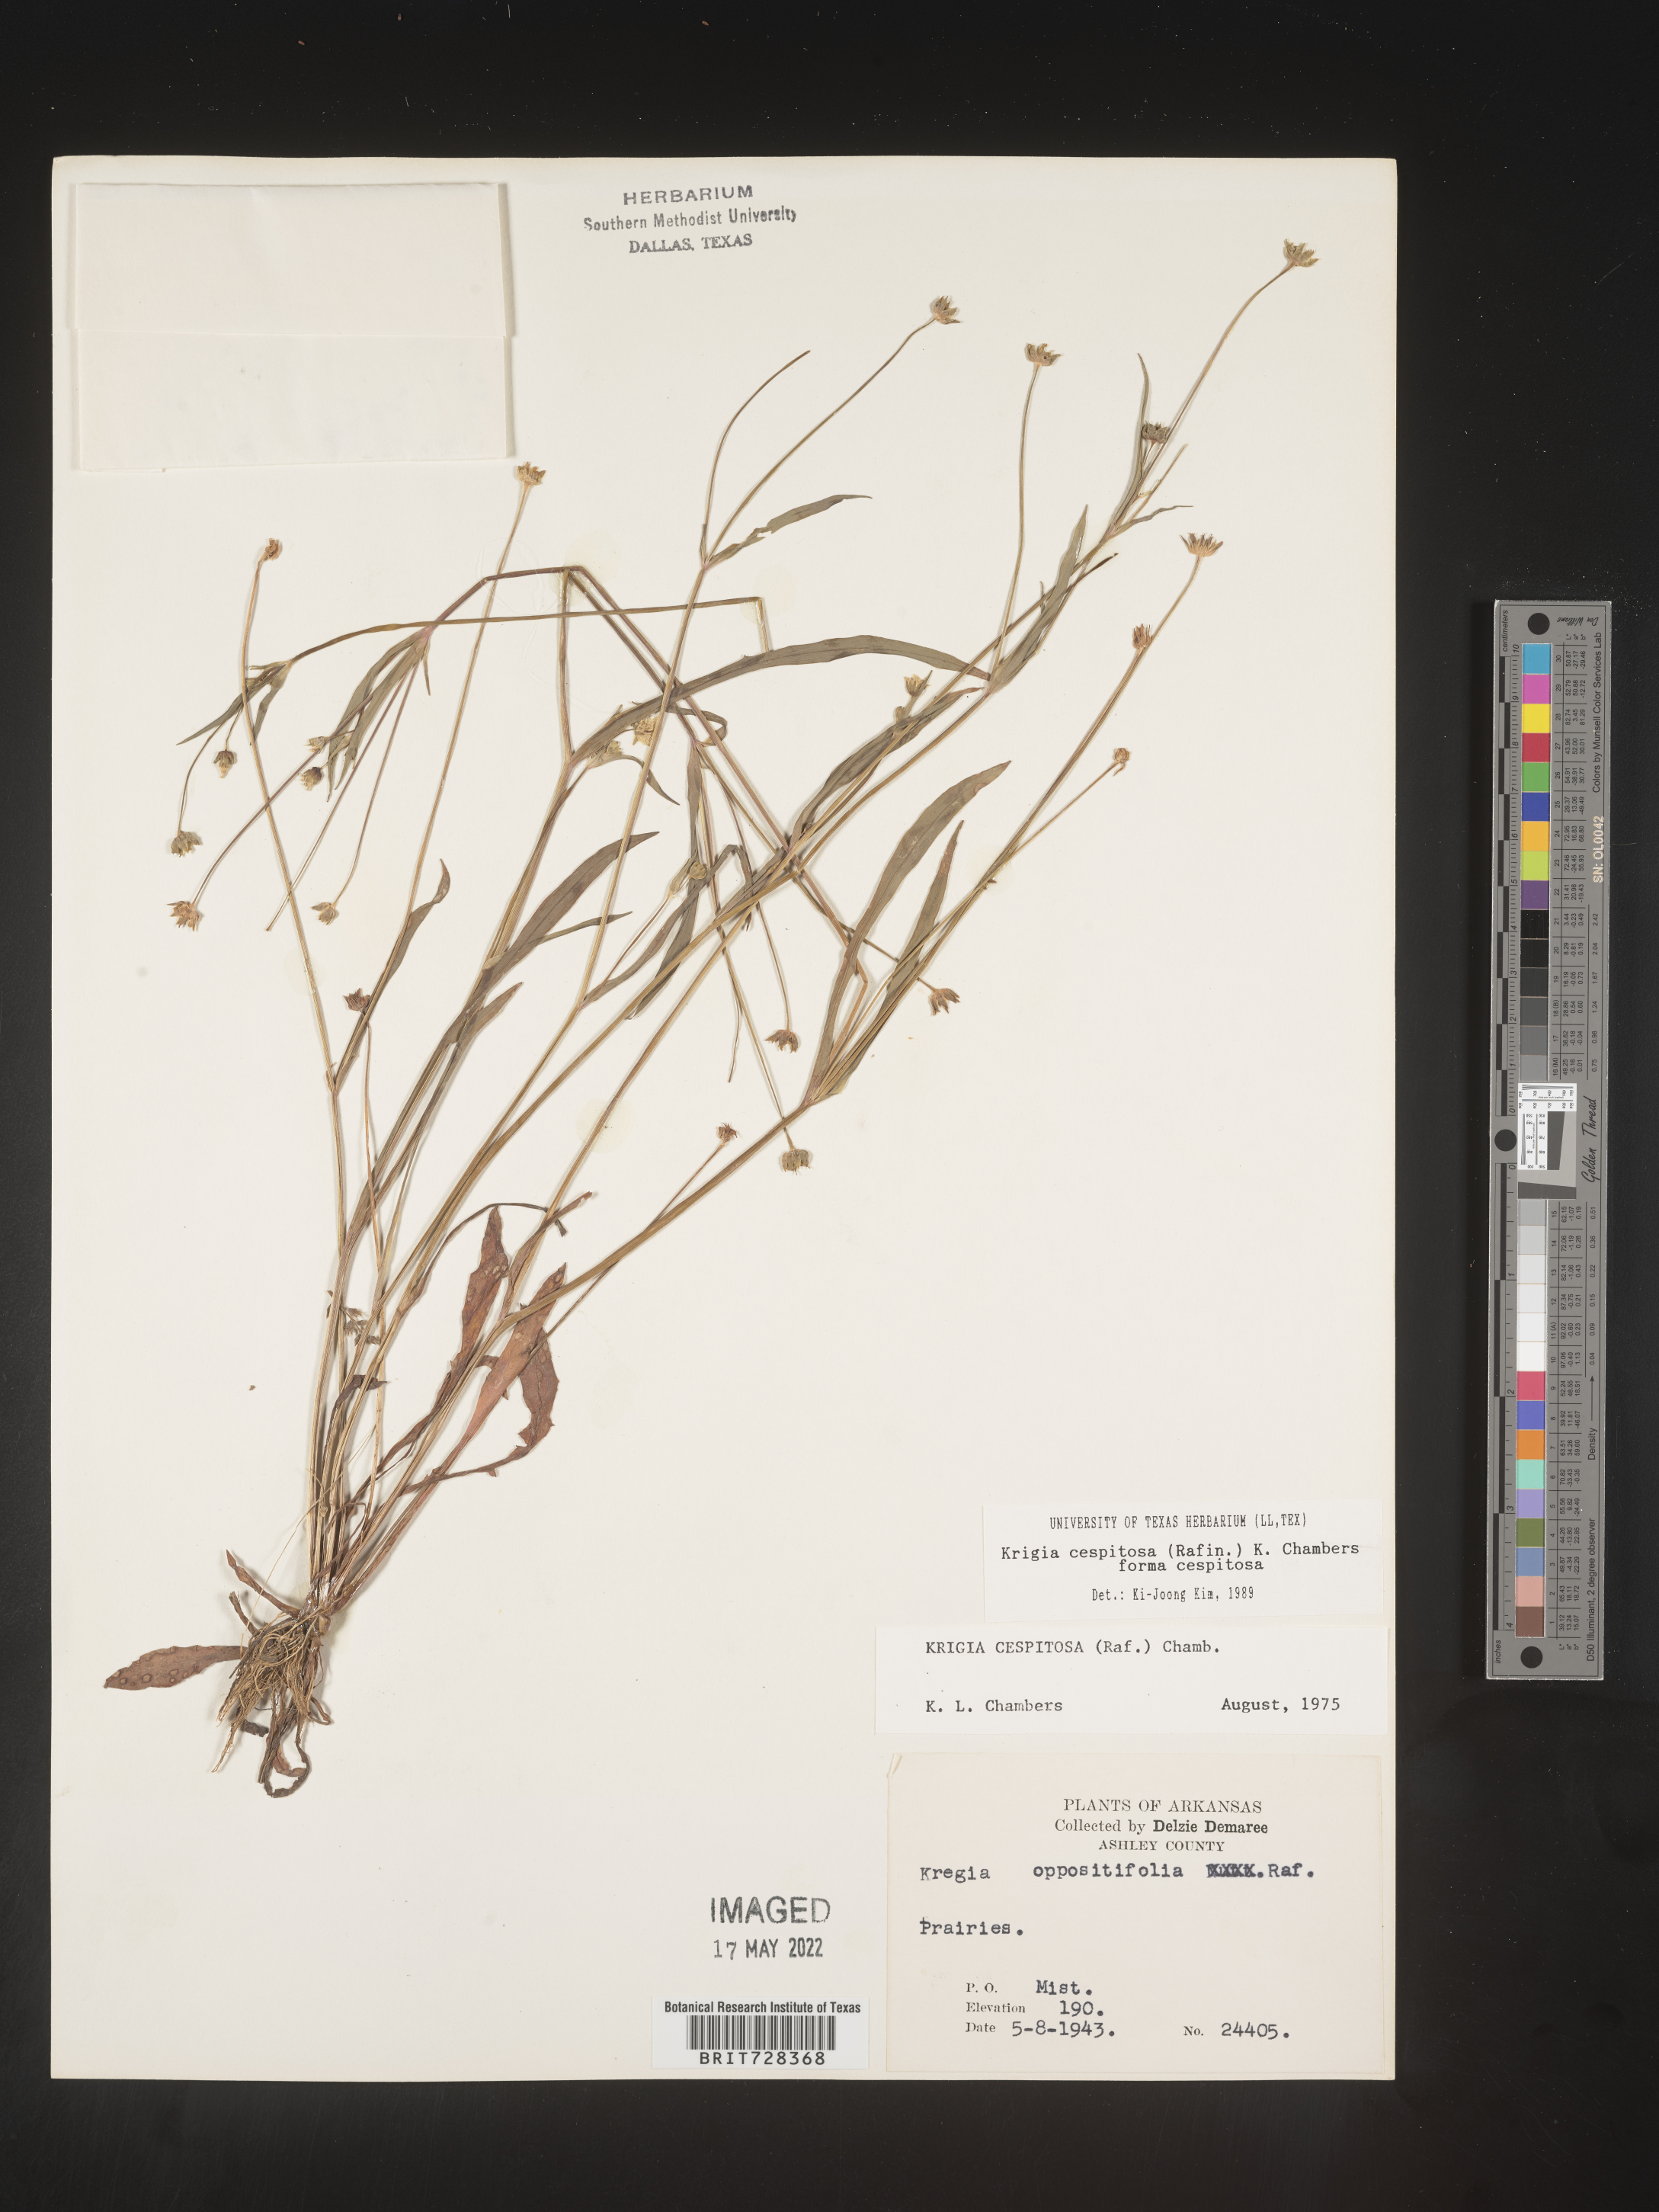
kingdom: Plantae
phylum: Tracheophyta
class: Magnoliopsida
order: Asterales
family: Asteraceae
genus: Krigia
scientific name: Krigia caespitosa
